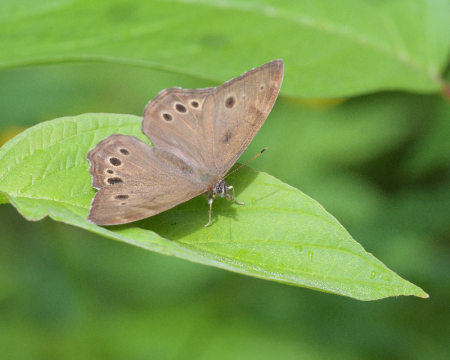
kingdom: Animalia
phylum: Arthropoda
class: Insecta
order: Lepidoptera
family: Nymphalidae
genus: Lethe
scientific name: Lethe anthedon
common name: Northern Pearly-Eye
